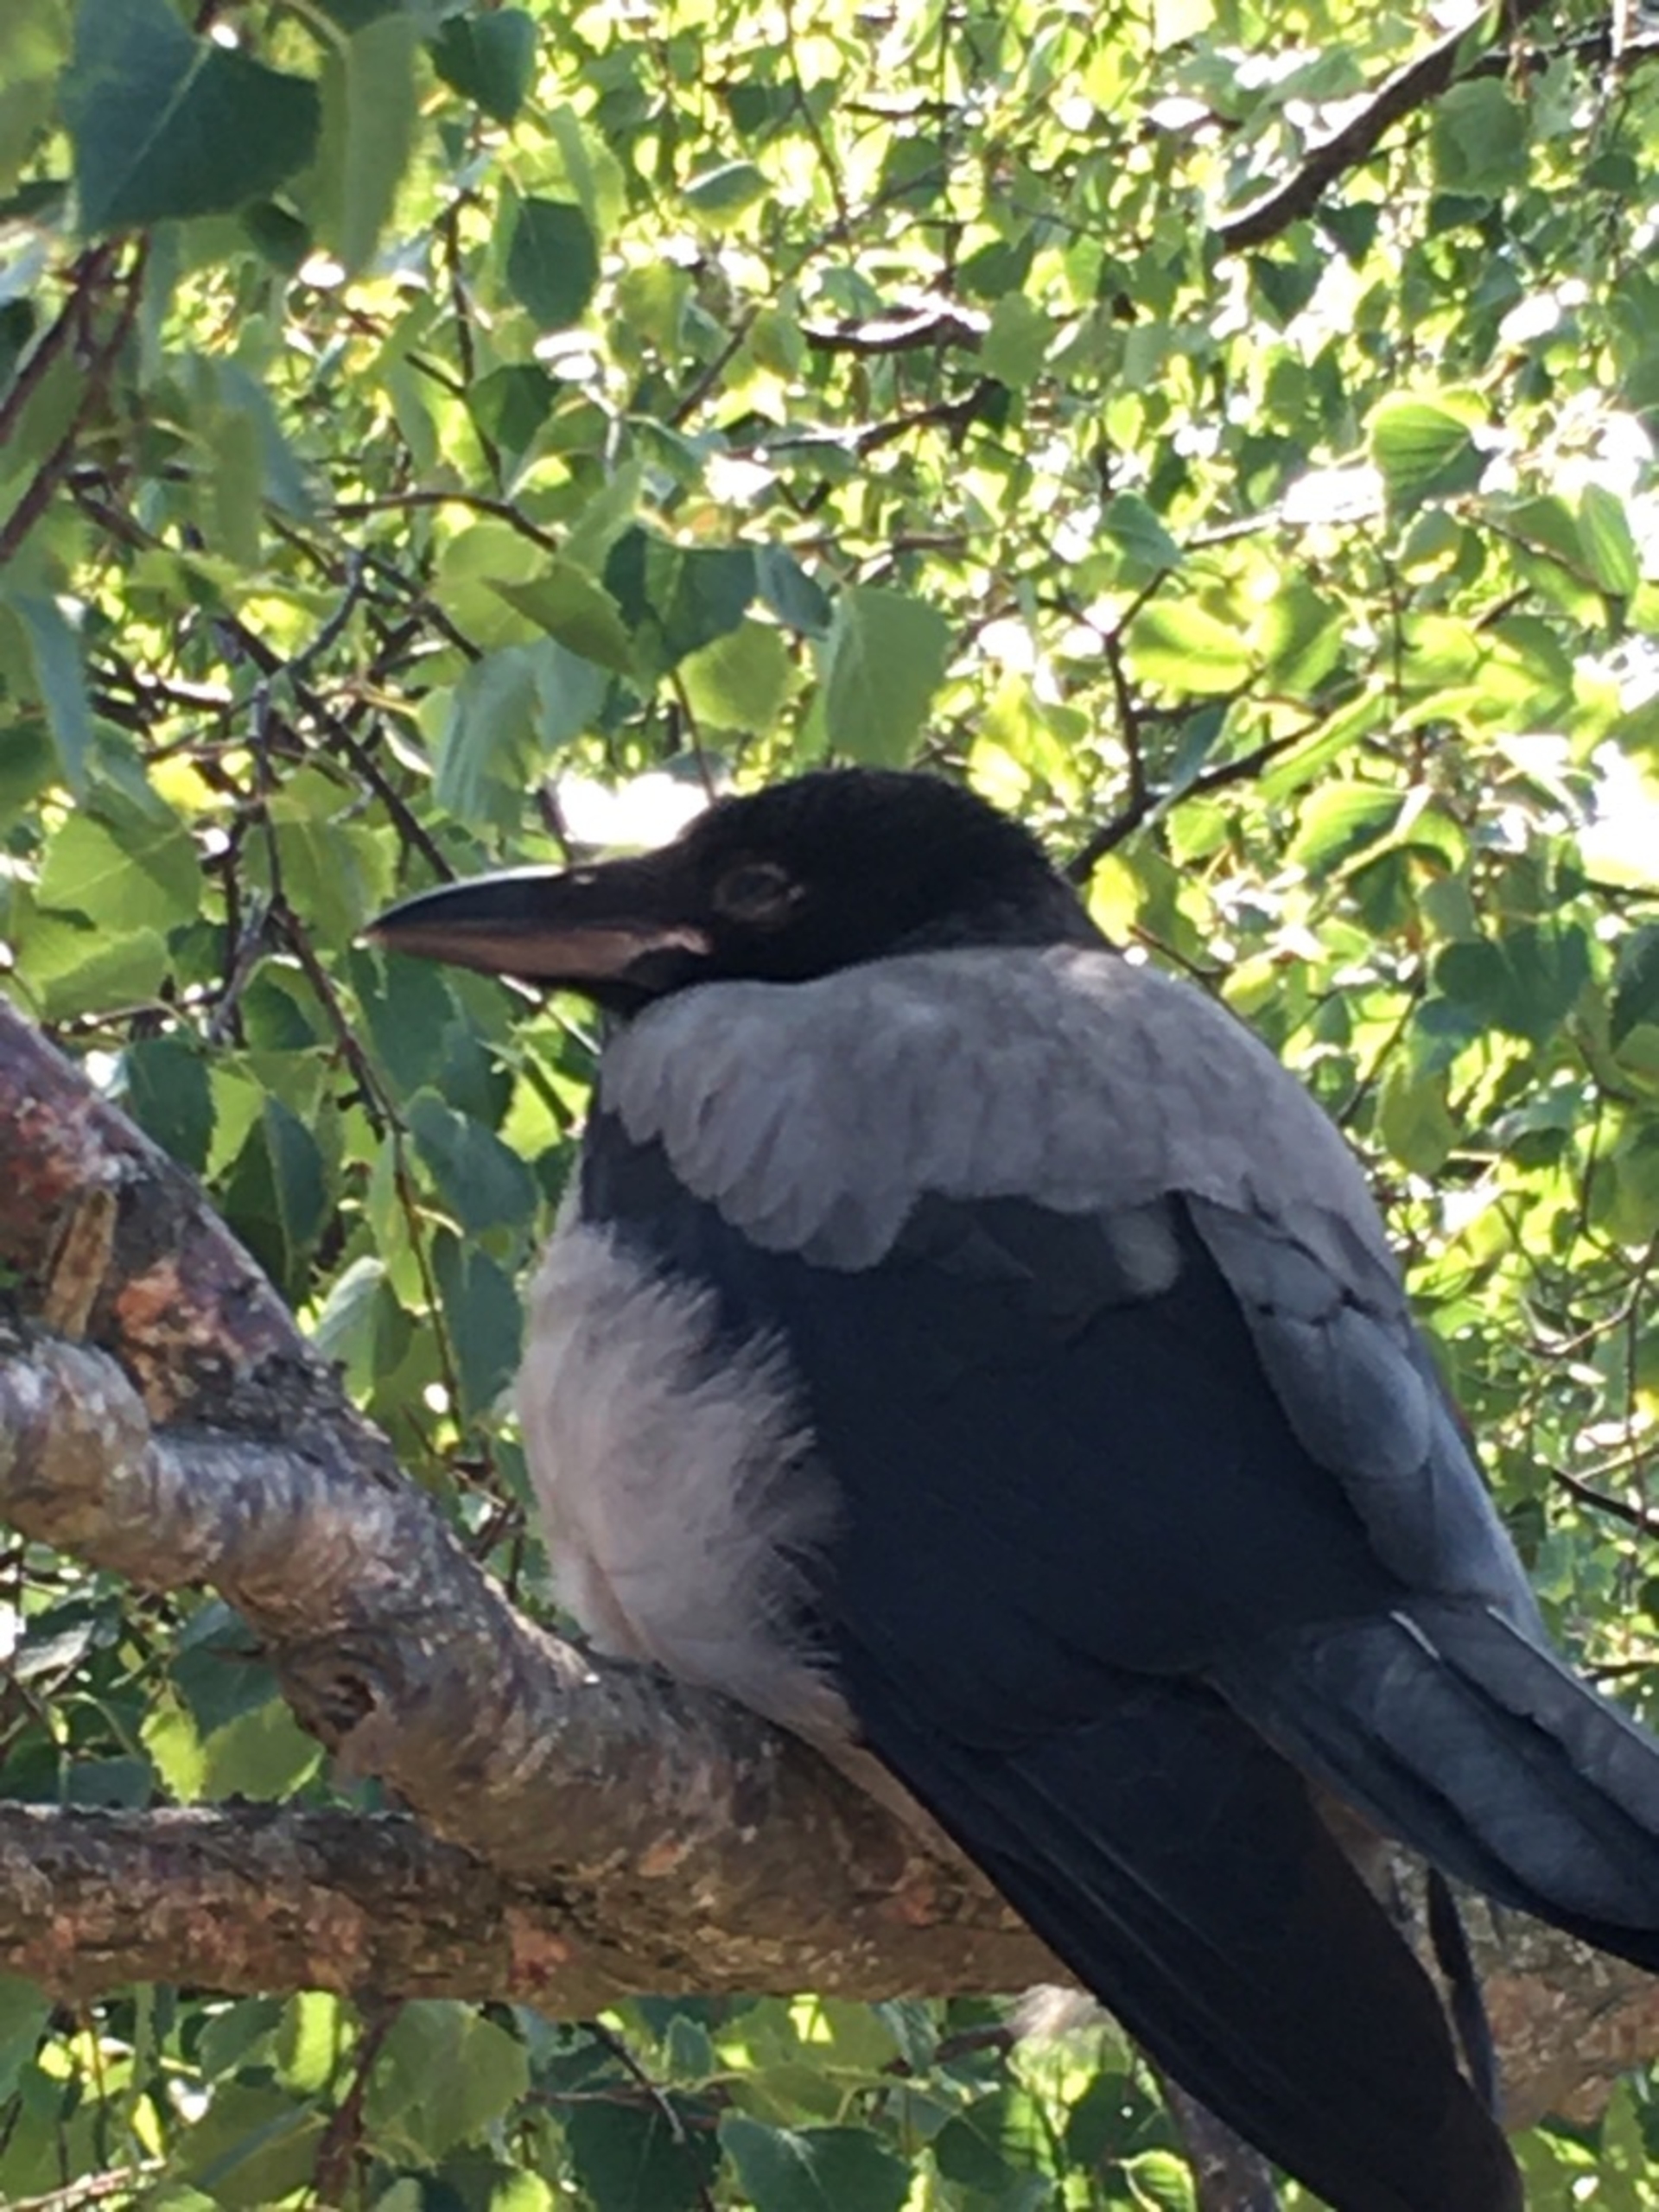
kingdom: Animalia
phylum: Chordata
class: Aves
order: Passeriformes
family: Corvidae
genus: Corvus
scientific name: Corvus cornix
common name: Gråkrage
